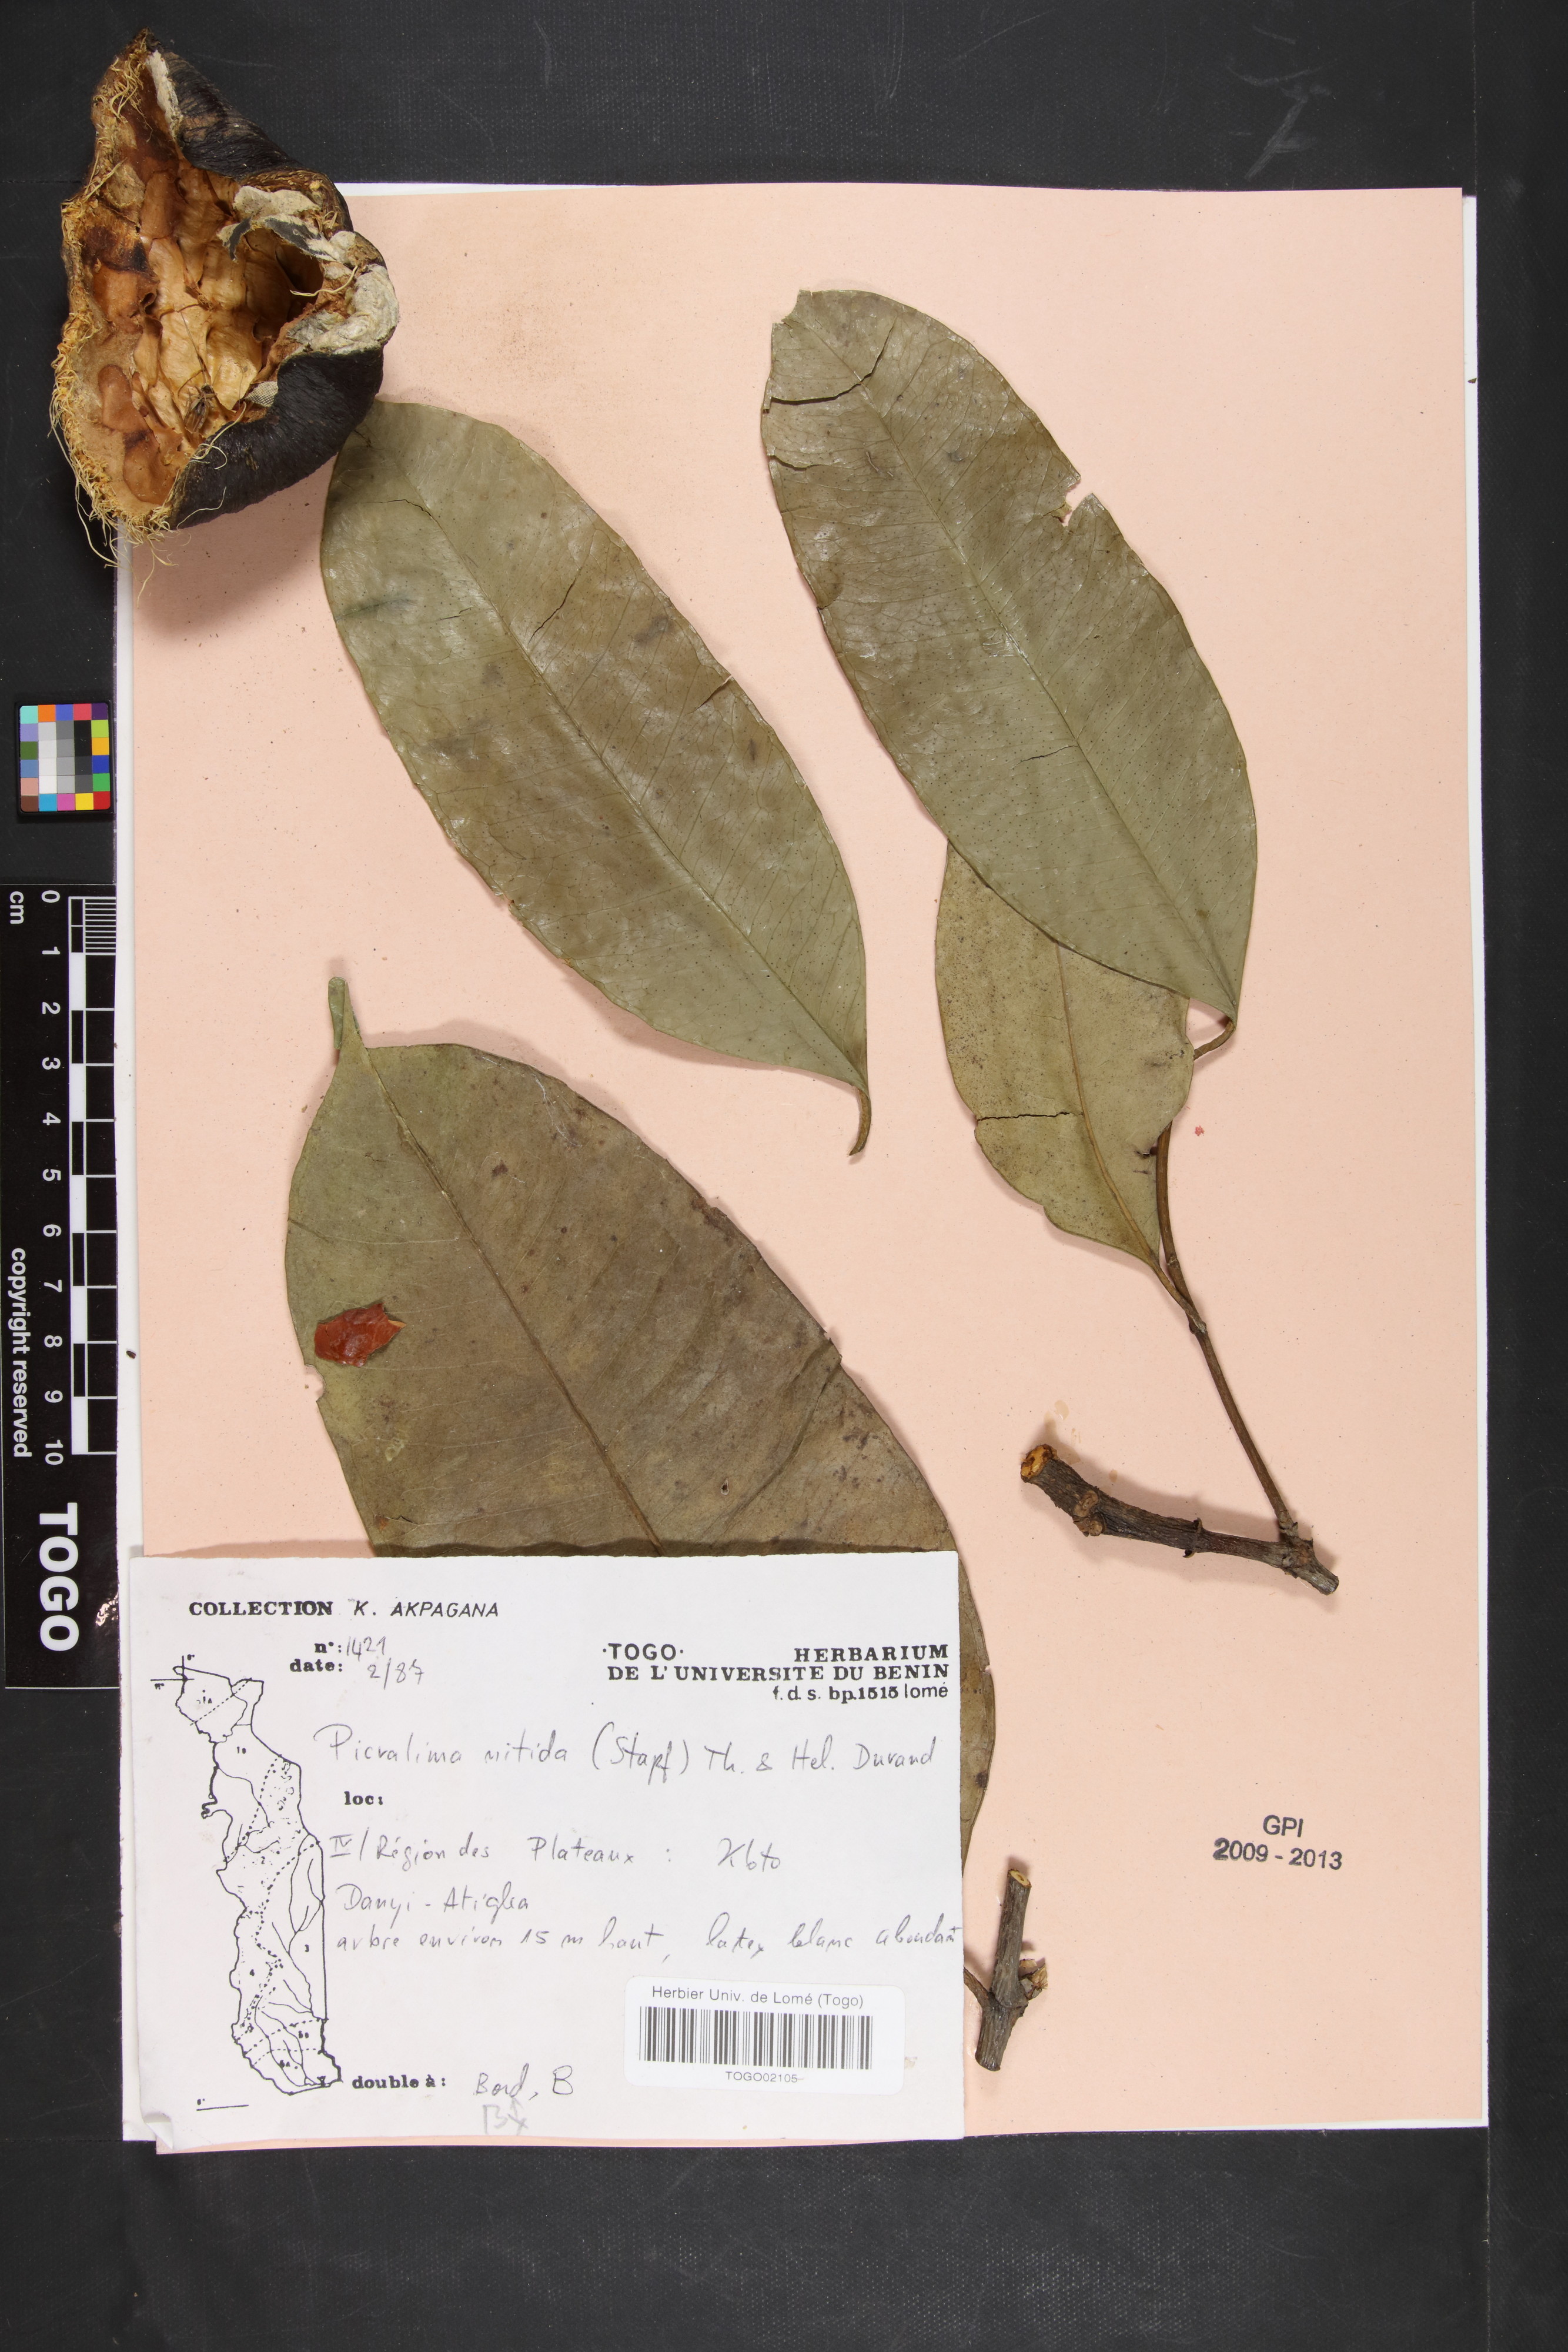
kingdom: Plantae
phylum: Tracheophyta
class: Magnoliopsida
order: Gentianales
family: Apocynaceae
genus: Picralima
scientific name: Picralima nitida
